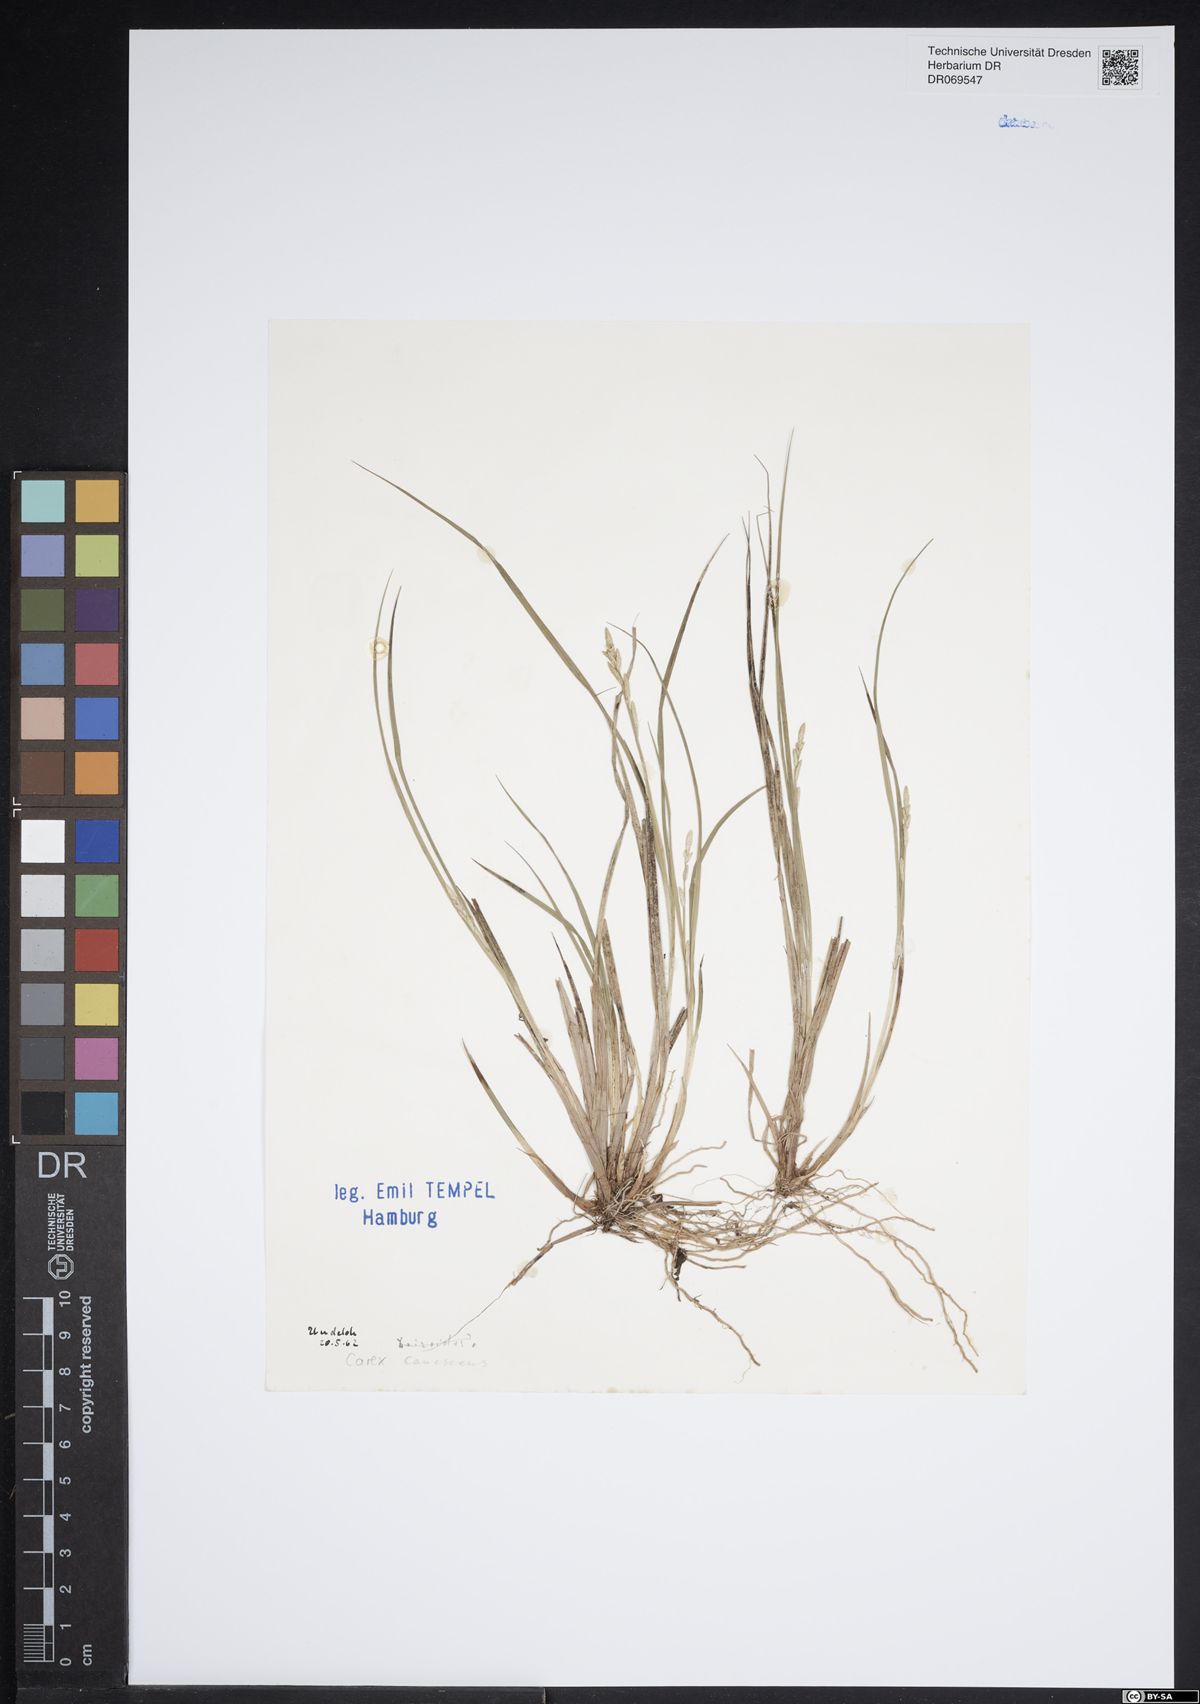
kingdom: Plantae
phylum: Tracheophyta
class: Liliopsida
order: Poales
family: Cyperaceae
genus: Carex
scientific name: Carex canescens
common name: White sedge
